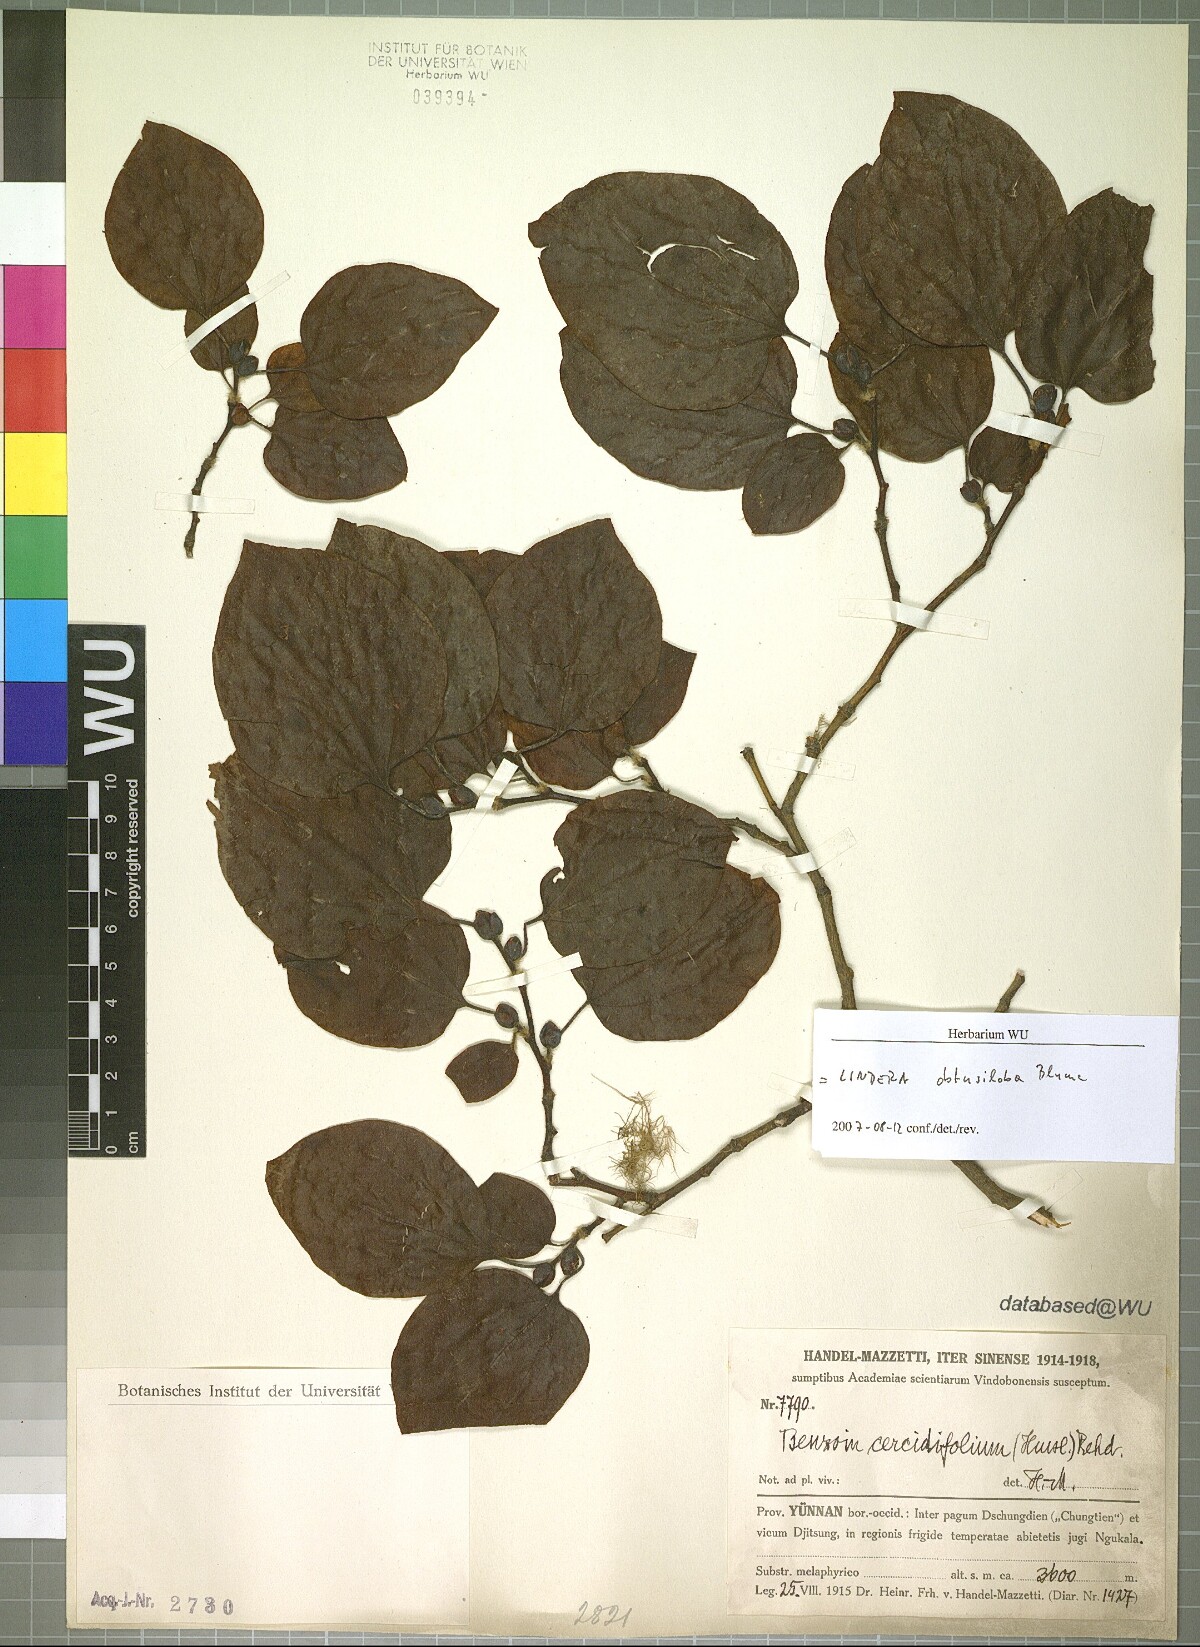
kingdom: Plantae
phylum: Tracheophyta
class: Magnoliopsida
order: Laurales
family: Lauraceae
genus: Lindera
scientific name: Lindera obtusiloba
